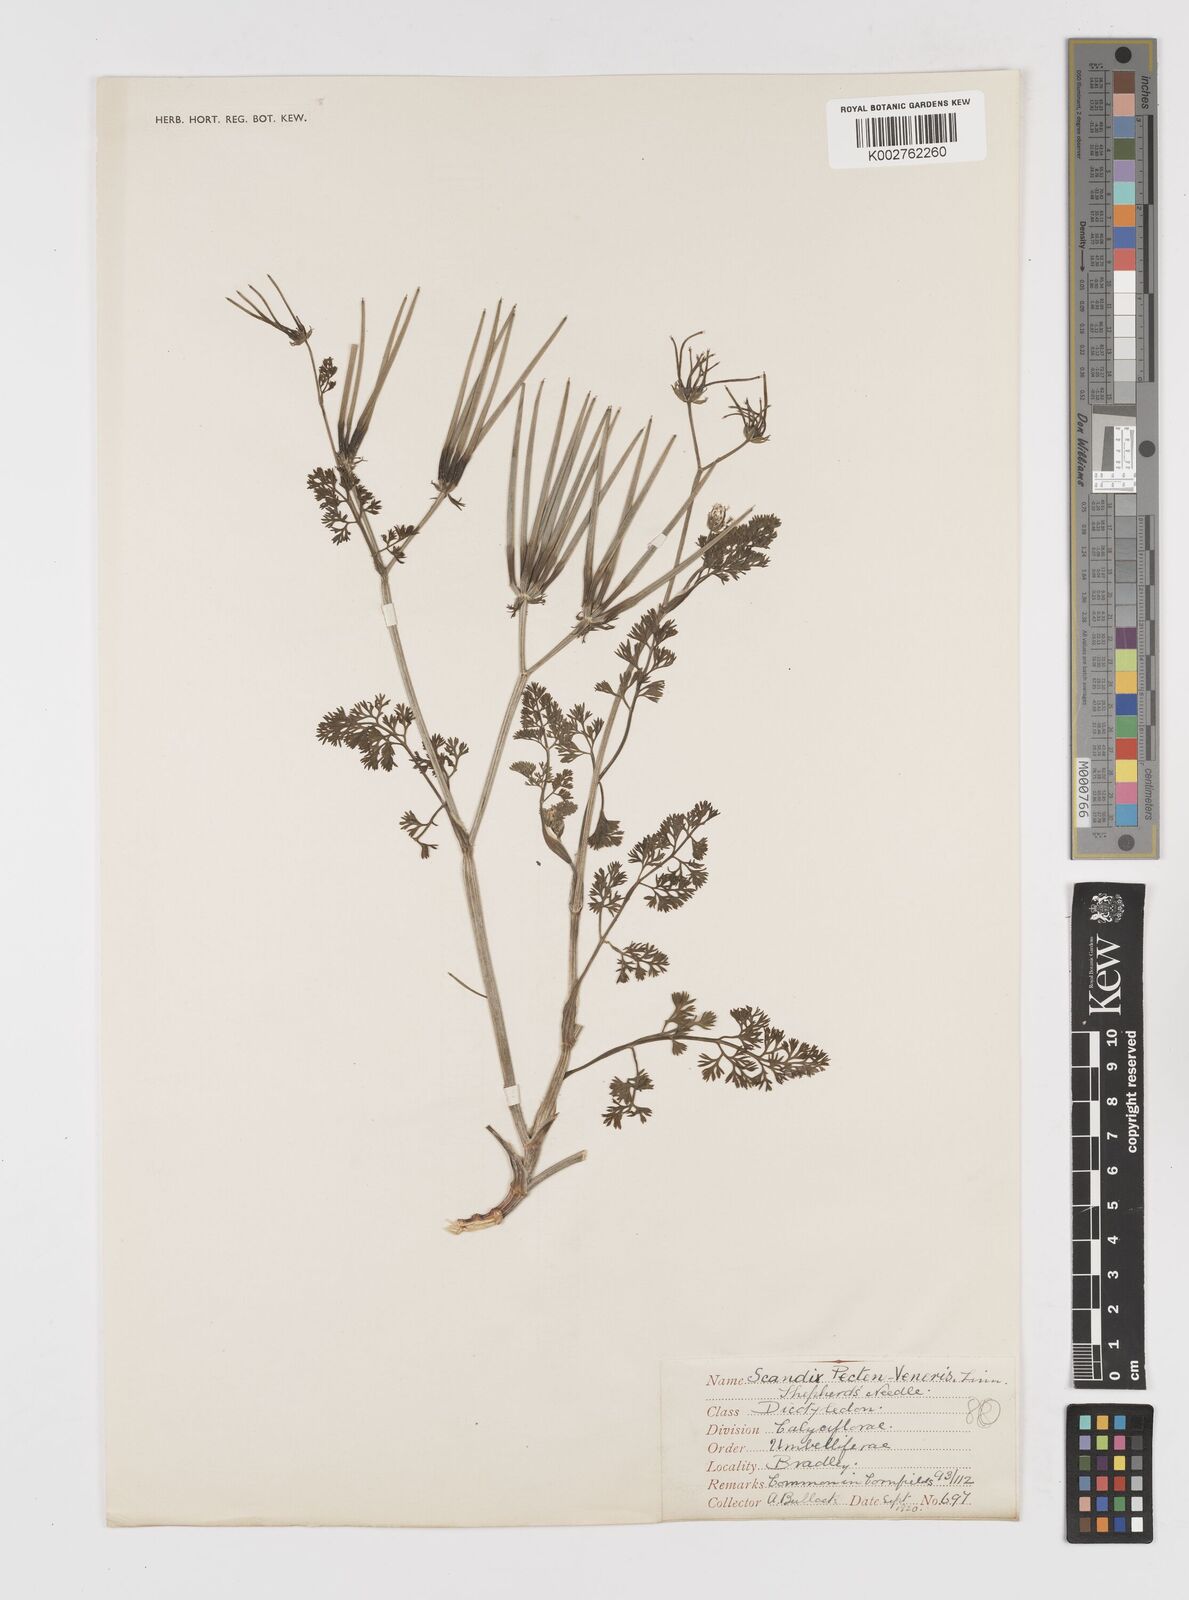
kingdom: Plantae
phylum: Tracheophyta
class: Magnoliopsida
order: Apiales
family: Apiaceae
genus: Scandix
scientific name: Scandix pecten-veneris
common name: Shepherd's-needle
